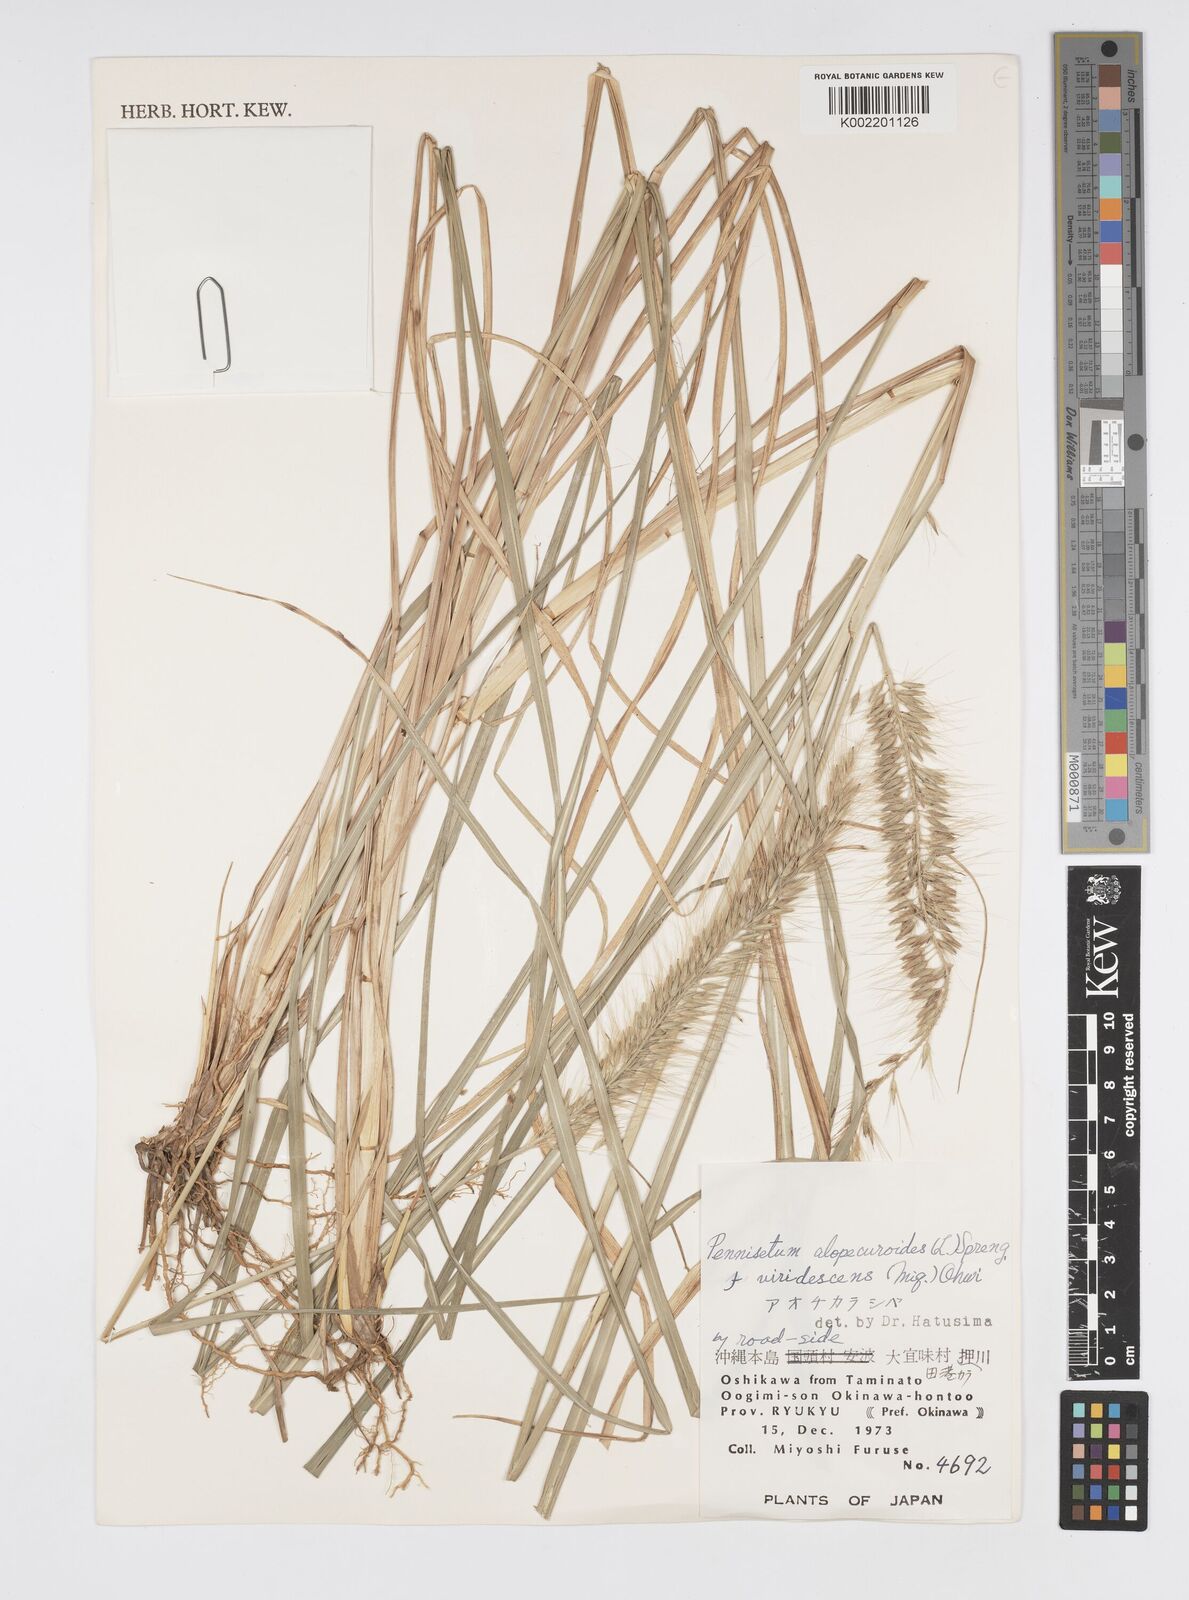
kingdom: Plantae
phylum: Tracheophyta
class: Liliopsida
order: Poales
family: Poaceae
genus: Cenchrus
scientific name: Cenchrus alopecuroides
